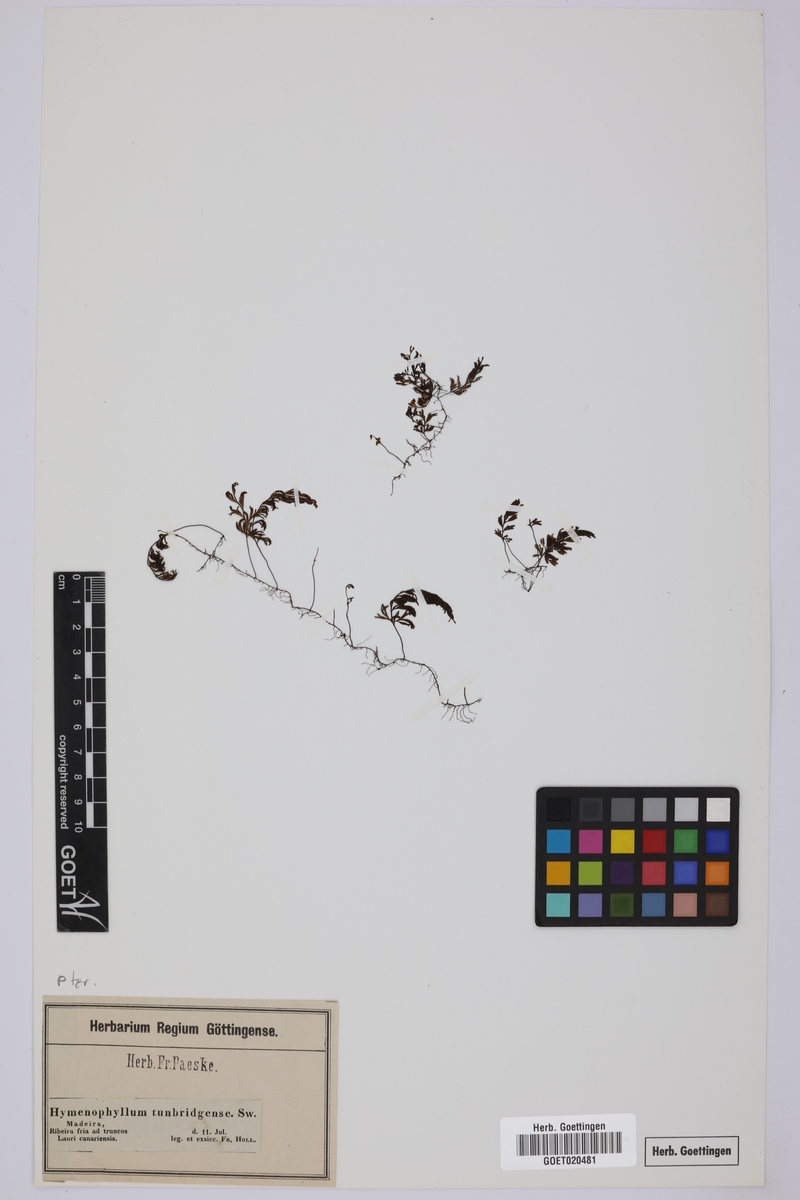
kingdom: Plantae
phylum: Tracheophyta
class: Polypodiopsida
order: Hymenophyllales
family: Hymenophyllaceae
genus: Hymenophyllum
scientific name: Hymenophyllum tunbrigense
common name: Tunbridge filmy fern
